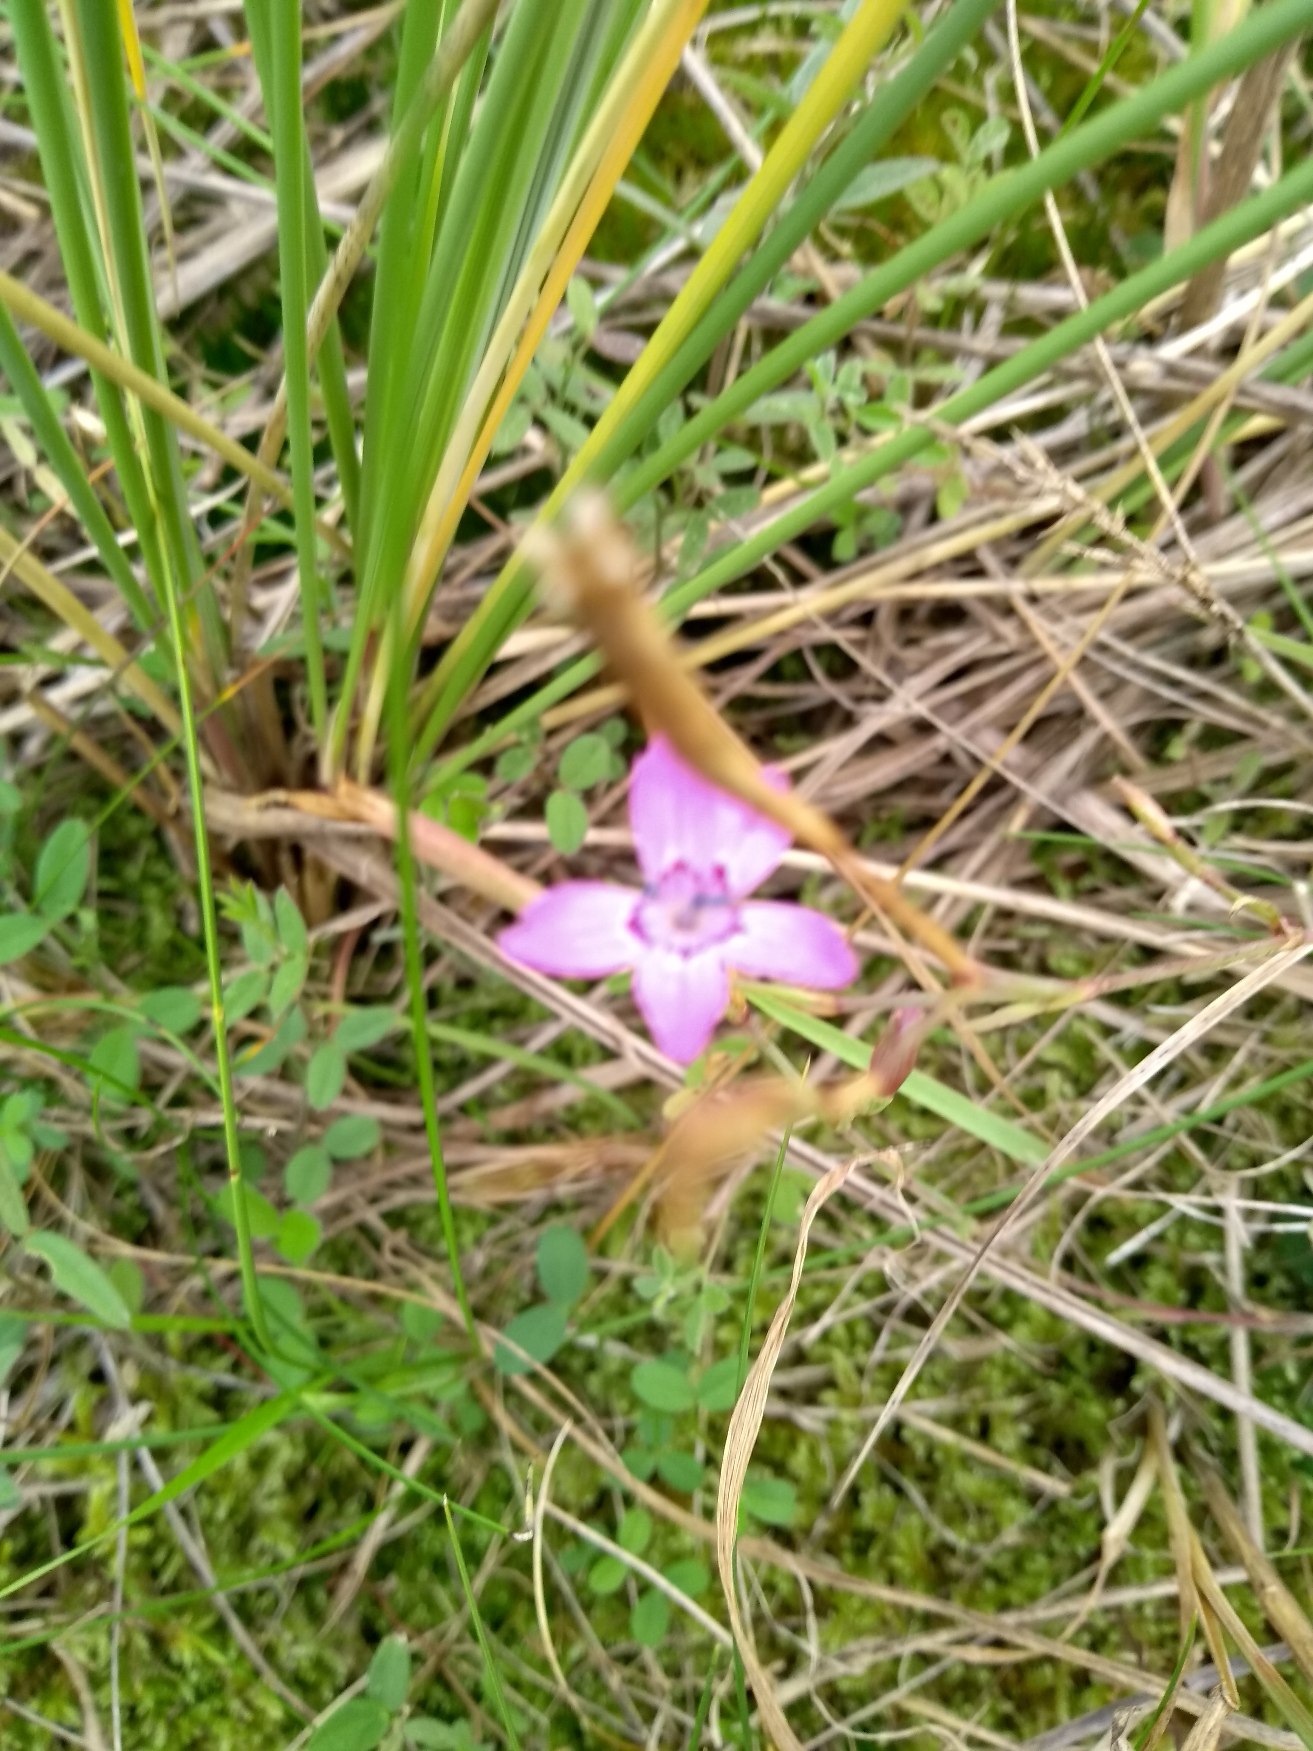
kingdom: Plantae
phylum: Tracheophyta
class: Magnoliopsida
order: Caryophyllales
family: Caryophyllaceae
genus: Dianthus
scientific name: Dianthus deltoides
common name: Bakke-nellike
